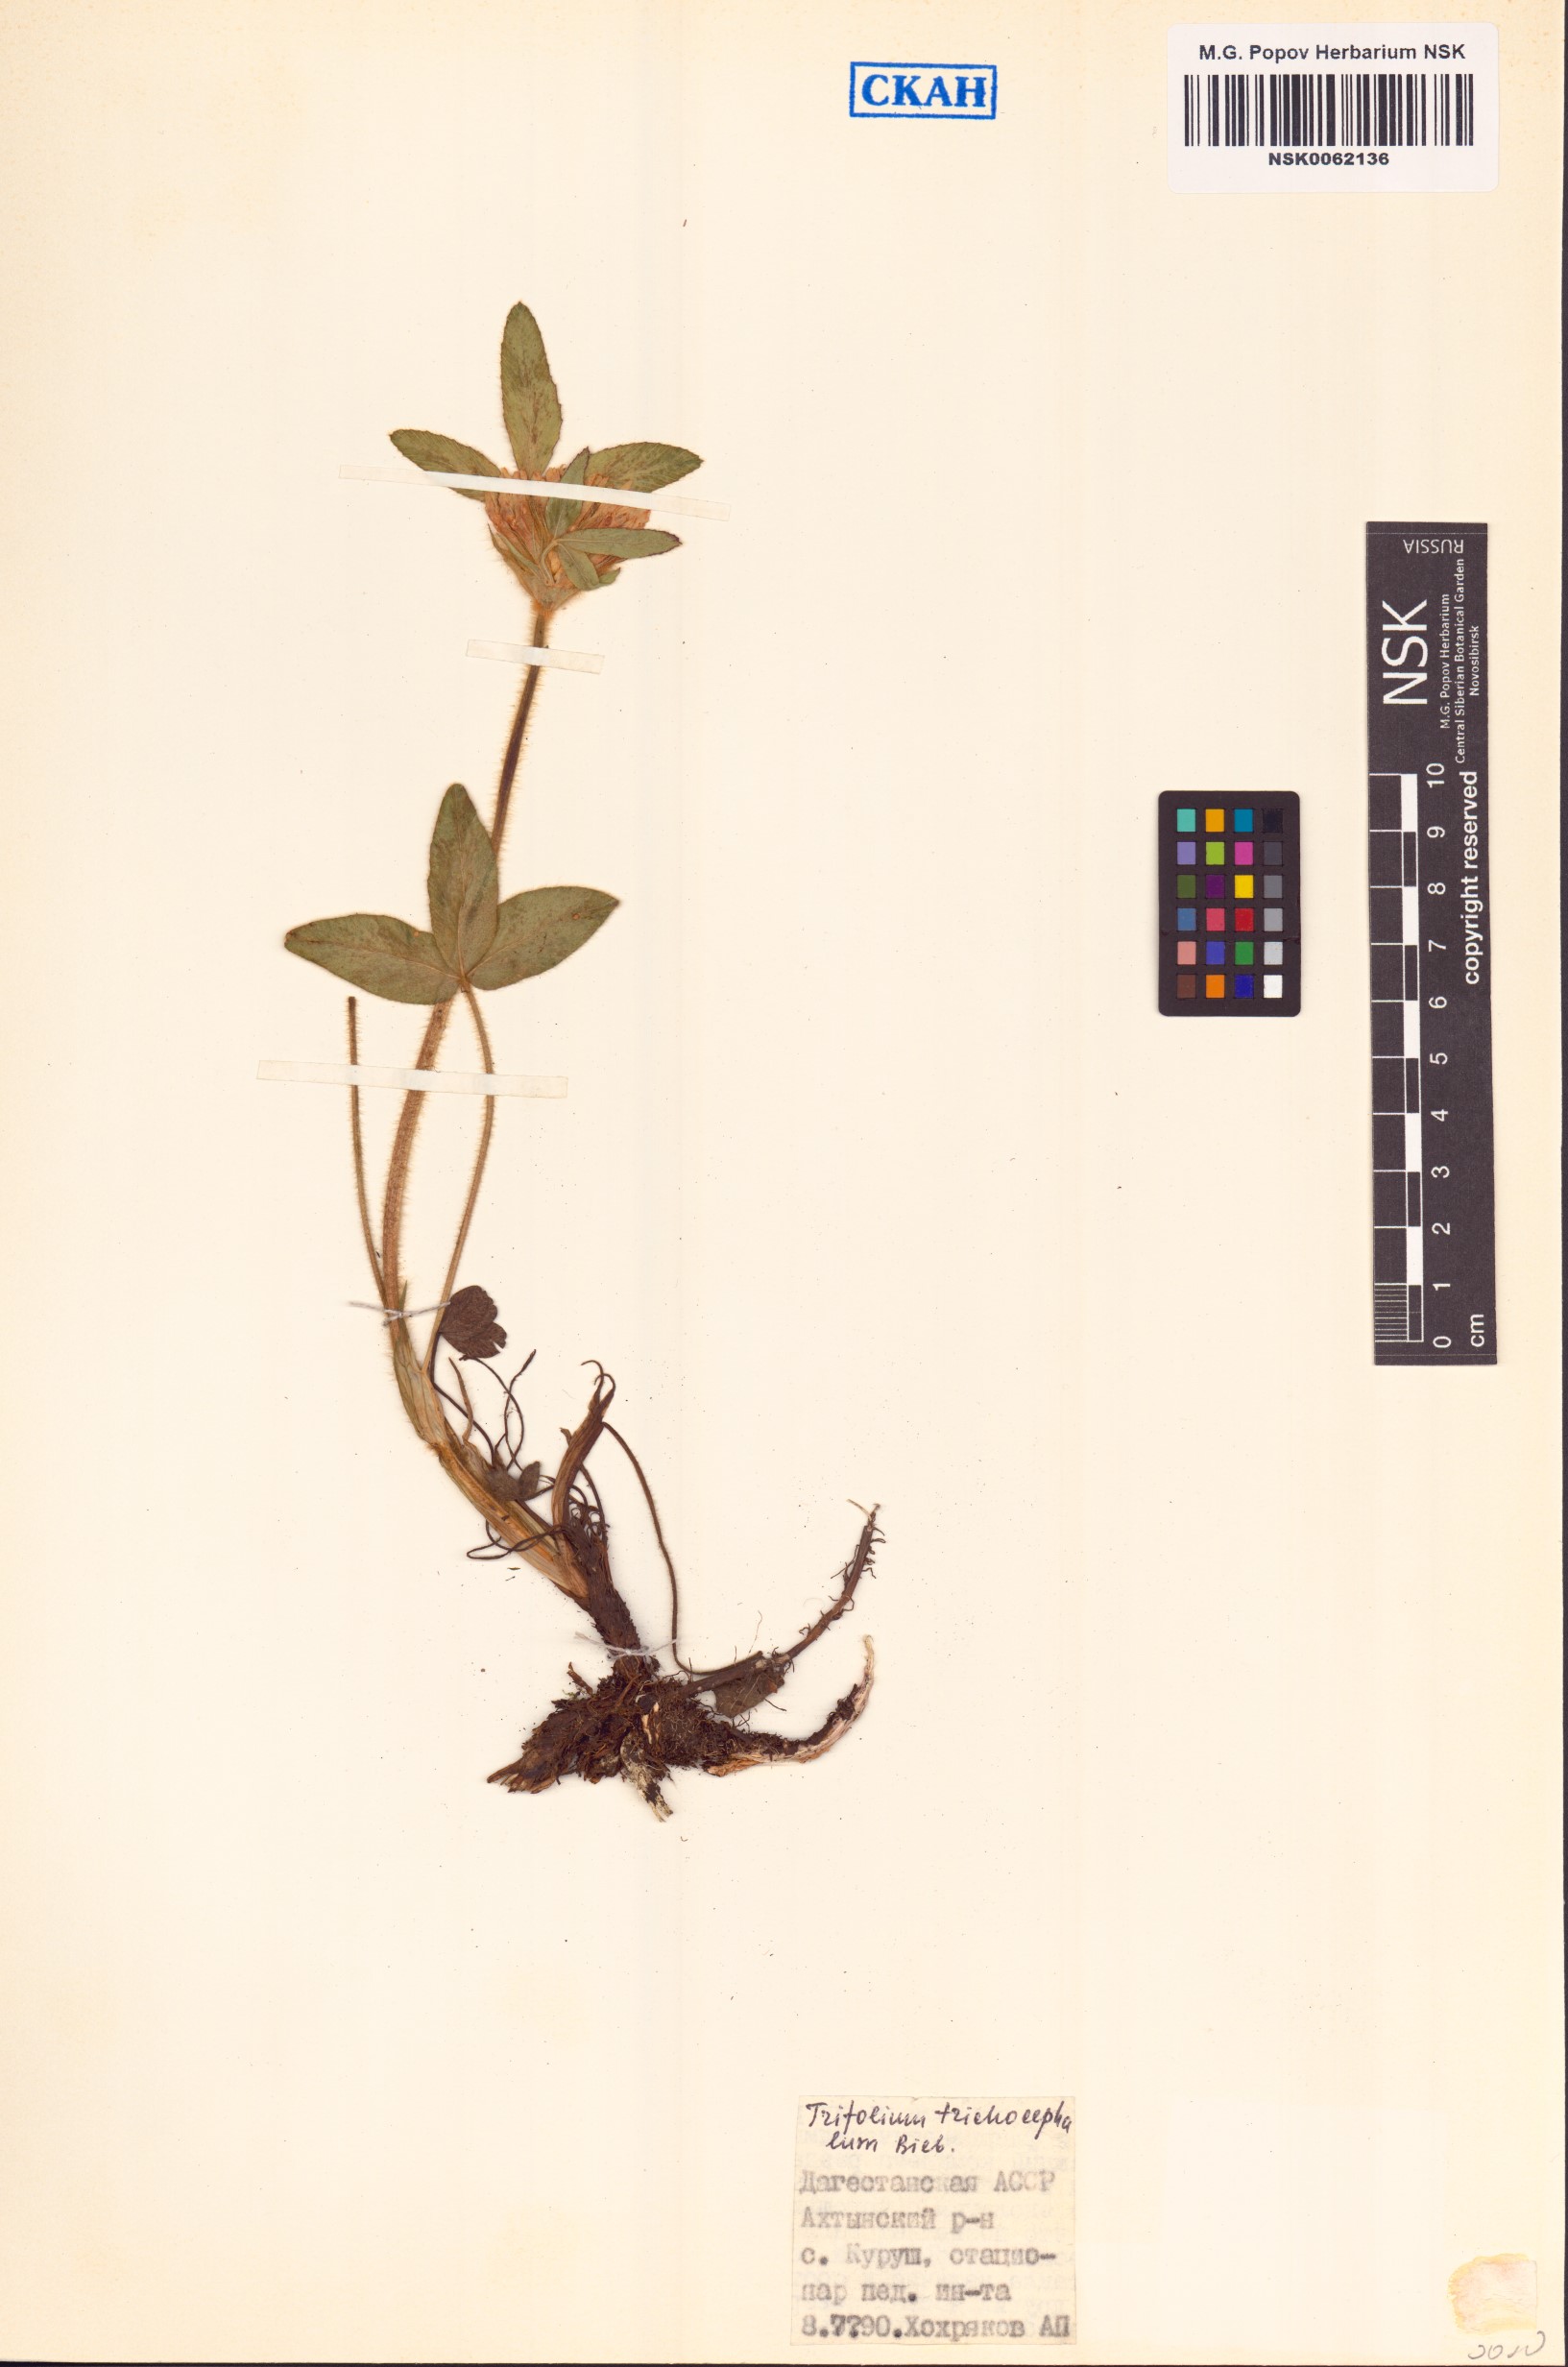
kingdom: Plantae
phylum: Tracheophyta
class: Magnoliopsida
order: Fabales
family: Fabaceae
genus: Trifolium
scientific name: Trifolium trichocephalum
